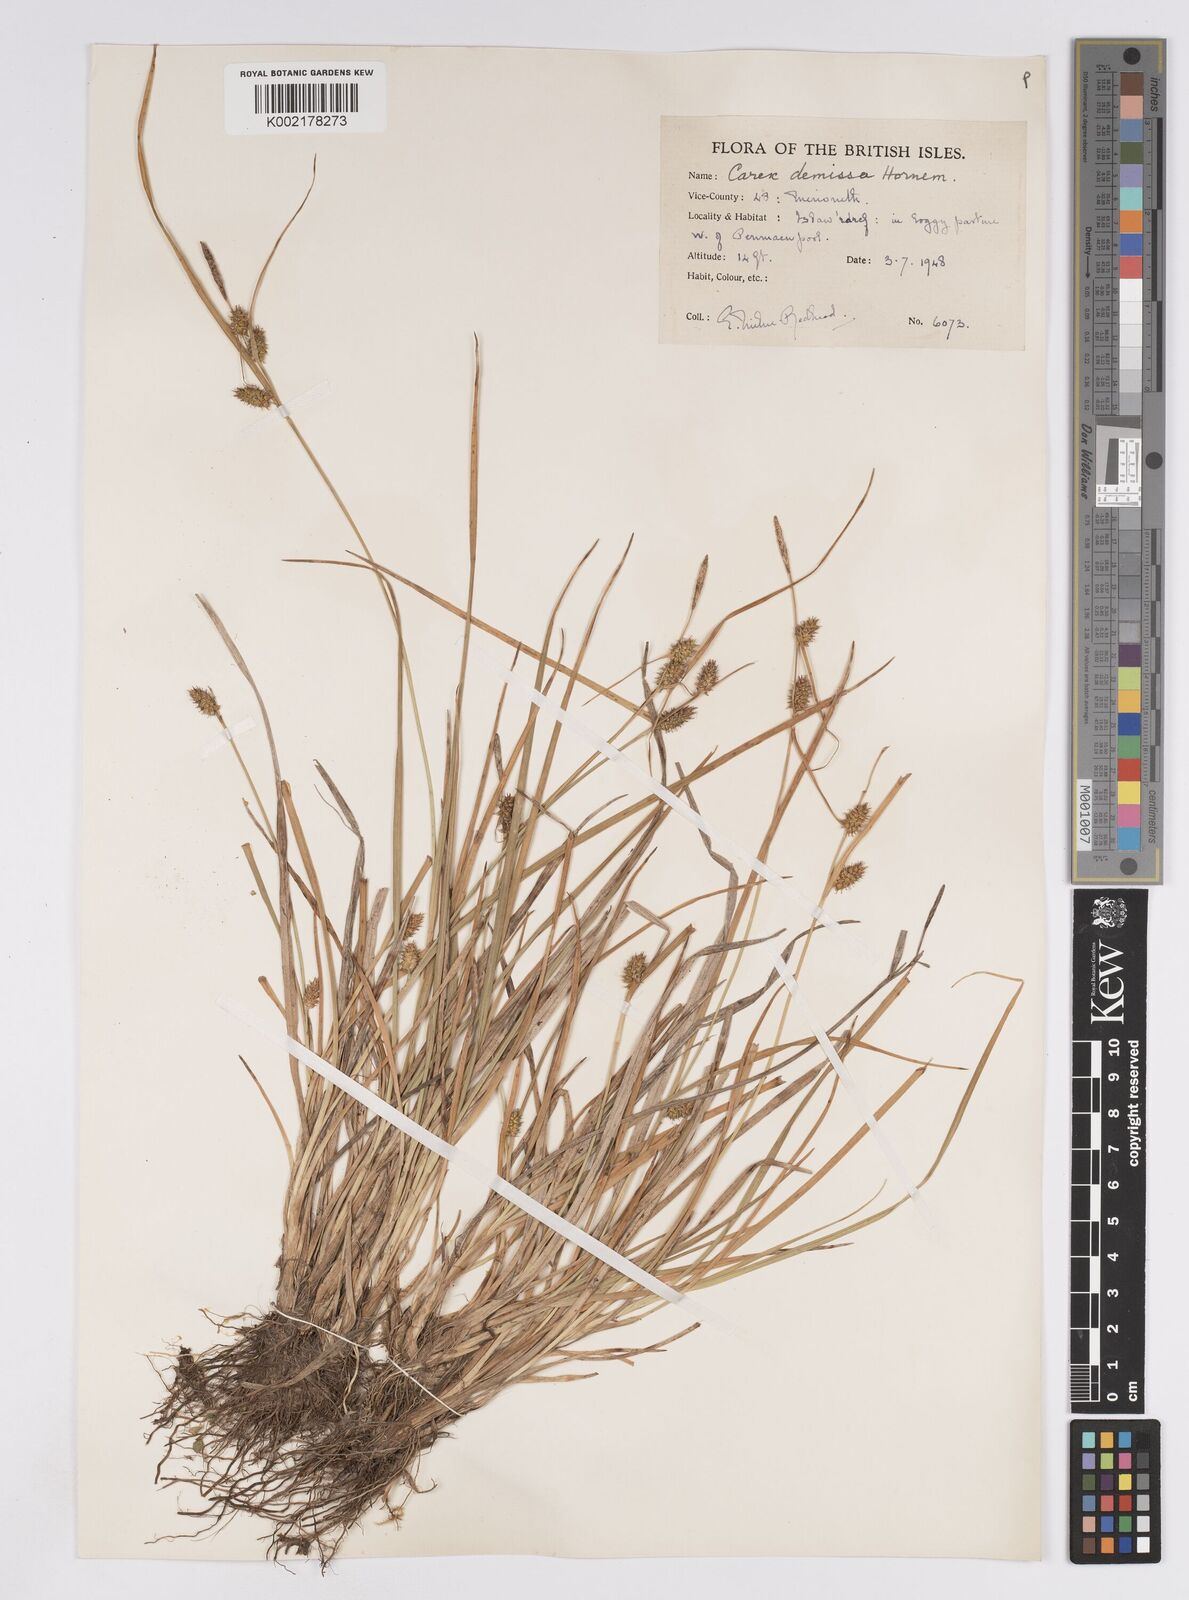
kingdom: Plantae
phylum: Tracheophyta
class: Liliopsida
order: Poales
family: Cyperaceae
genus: Carex
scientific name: Carex demissa
